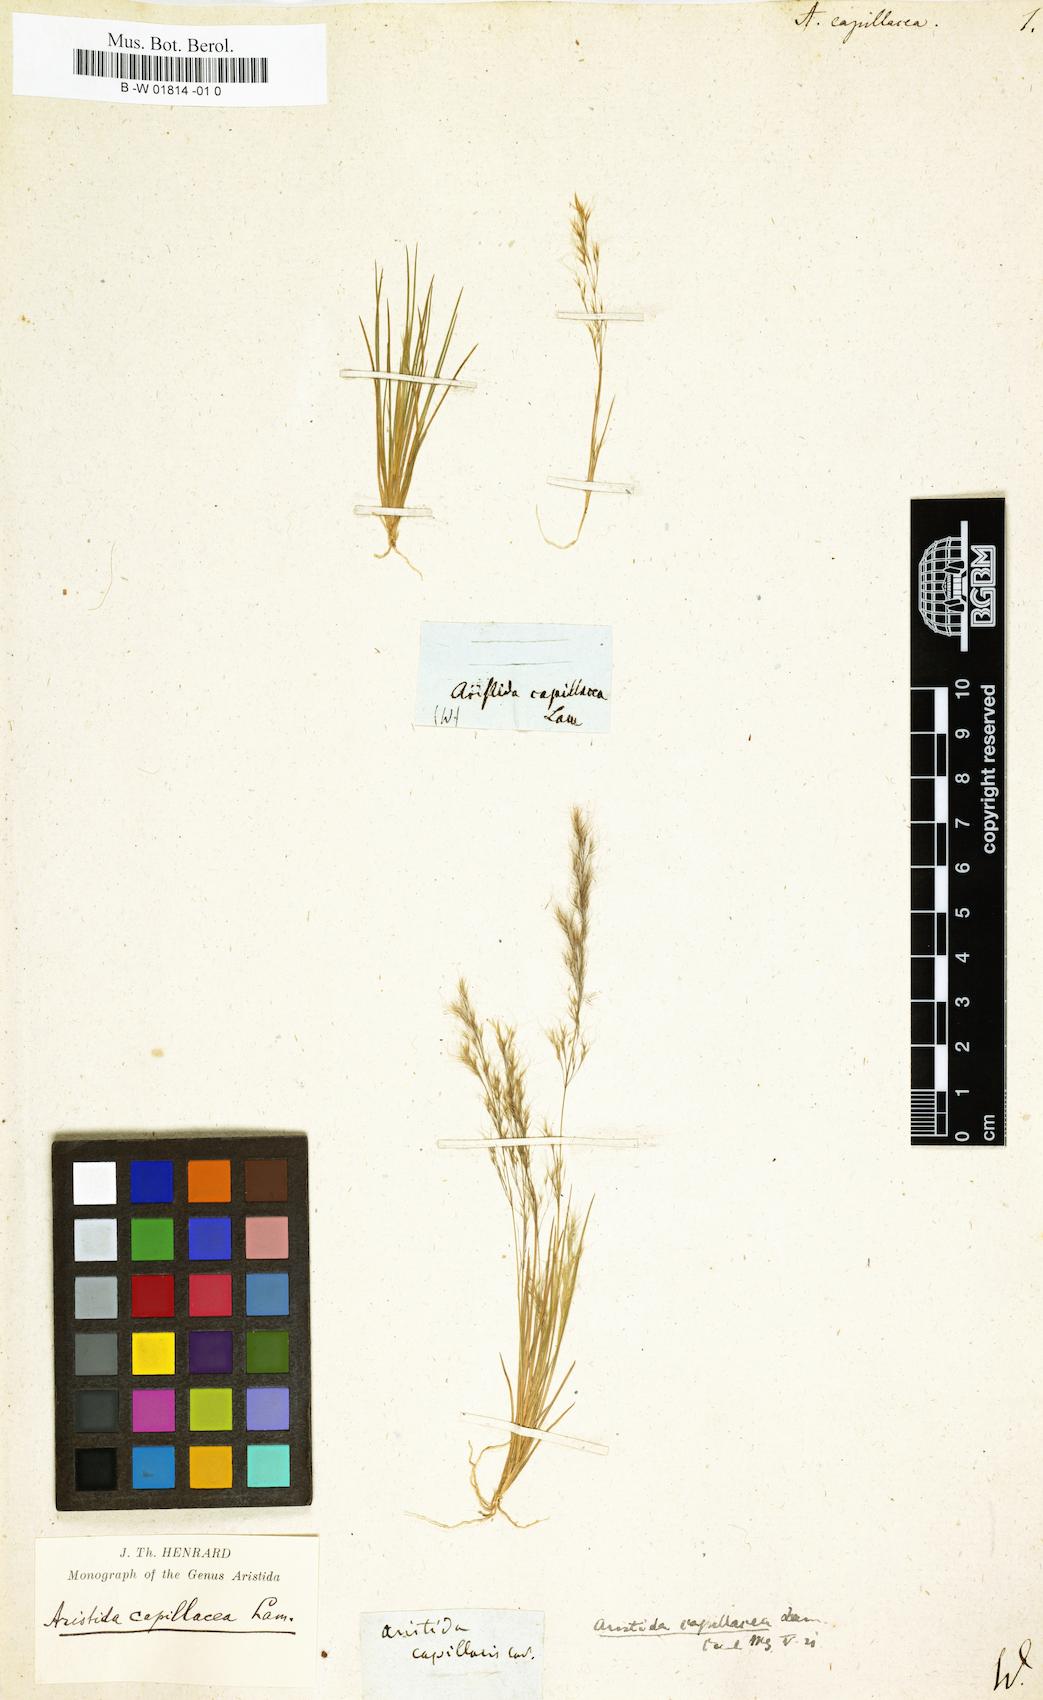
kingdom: Plantae
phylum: Tracheophyta
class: Liliopsida
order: Poales
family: Poaceae
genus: Aristida
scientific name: Aristida capillacea
